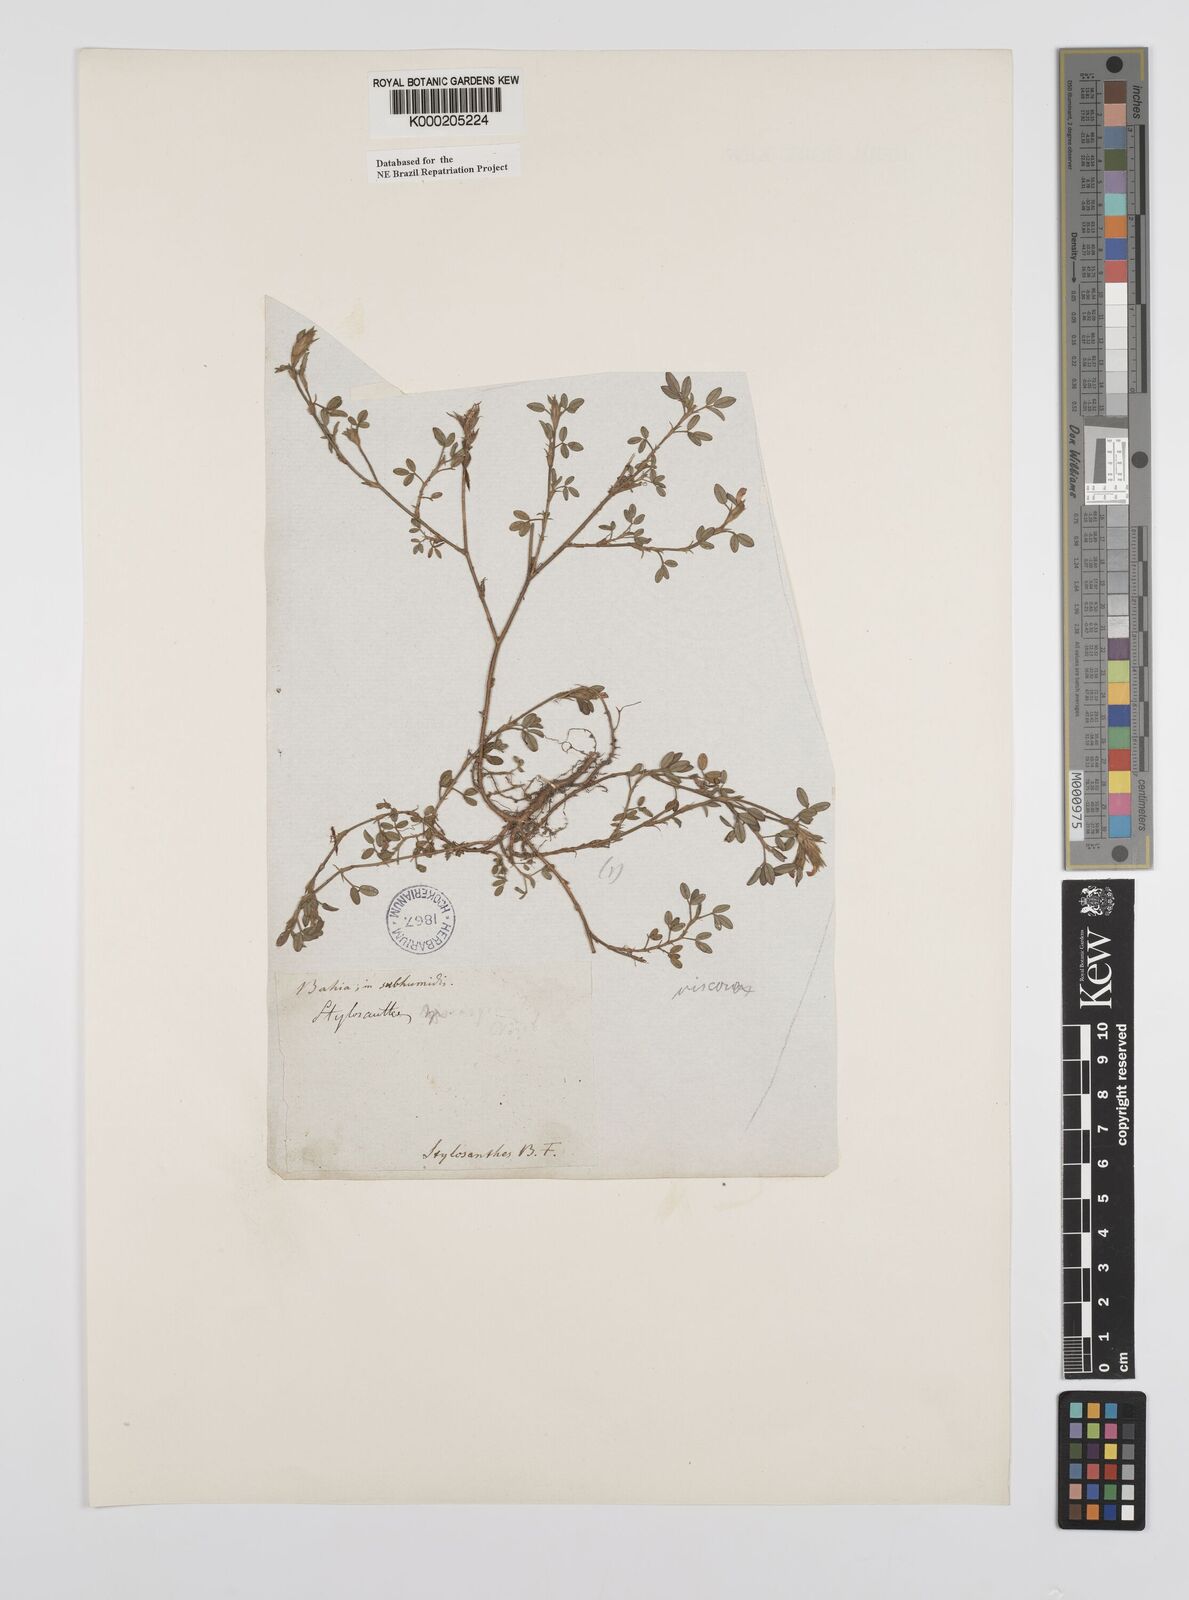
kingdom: Plantae
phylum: Tracheophyta
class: Magnoliopsida
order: Fabales
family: Fabaceae
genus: Stylosanthes
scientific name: Stylosanthes viscosa
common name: Viscid pencil-flower
